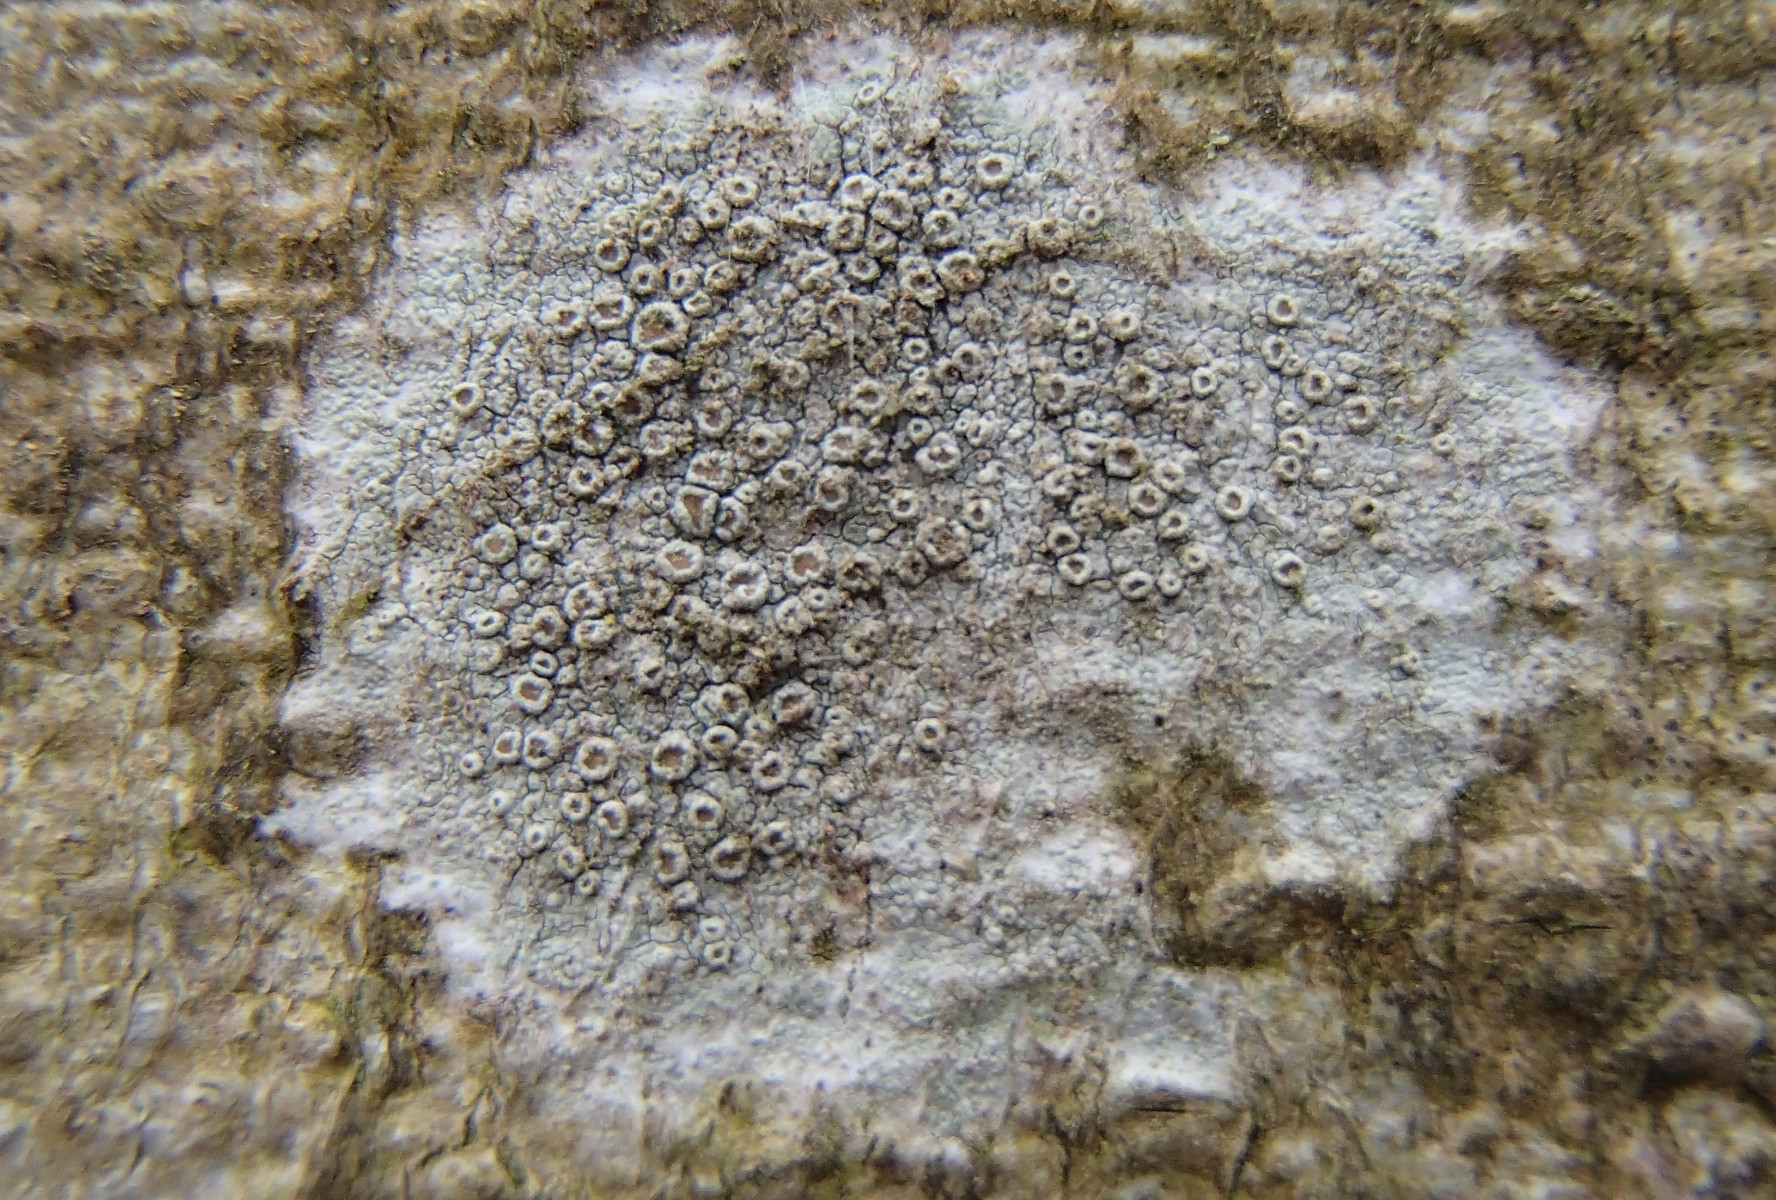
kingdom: Fungi
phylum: Ascomycota
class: Lecanoromycetes
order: Lecanorales
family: Lecanoraceae
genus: Lecanora
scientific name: Lecanora chlarotera
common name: brun kantskivelav
